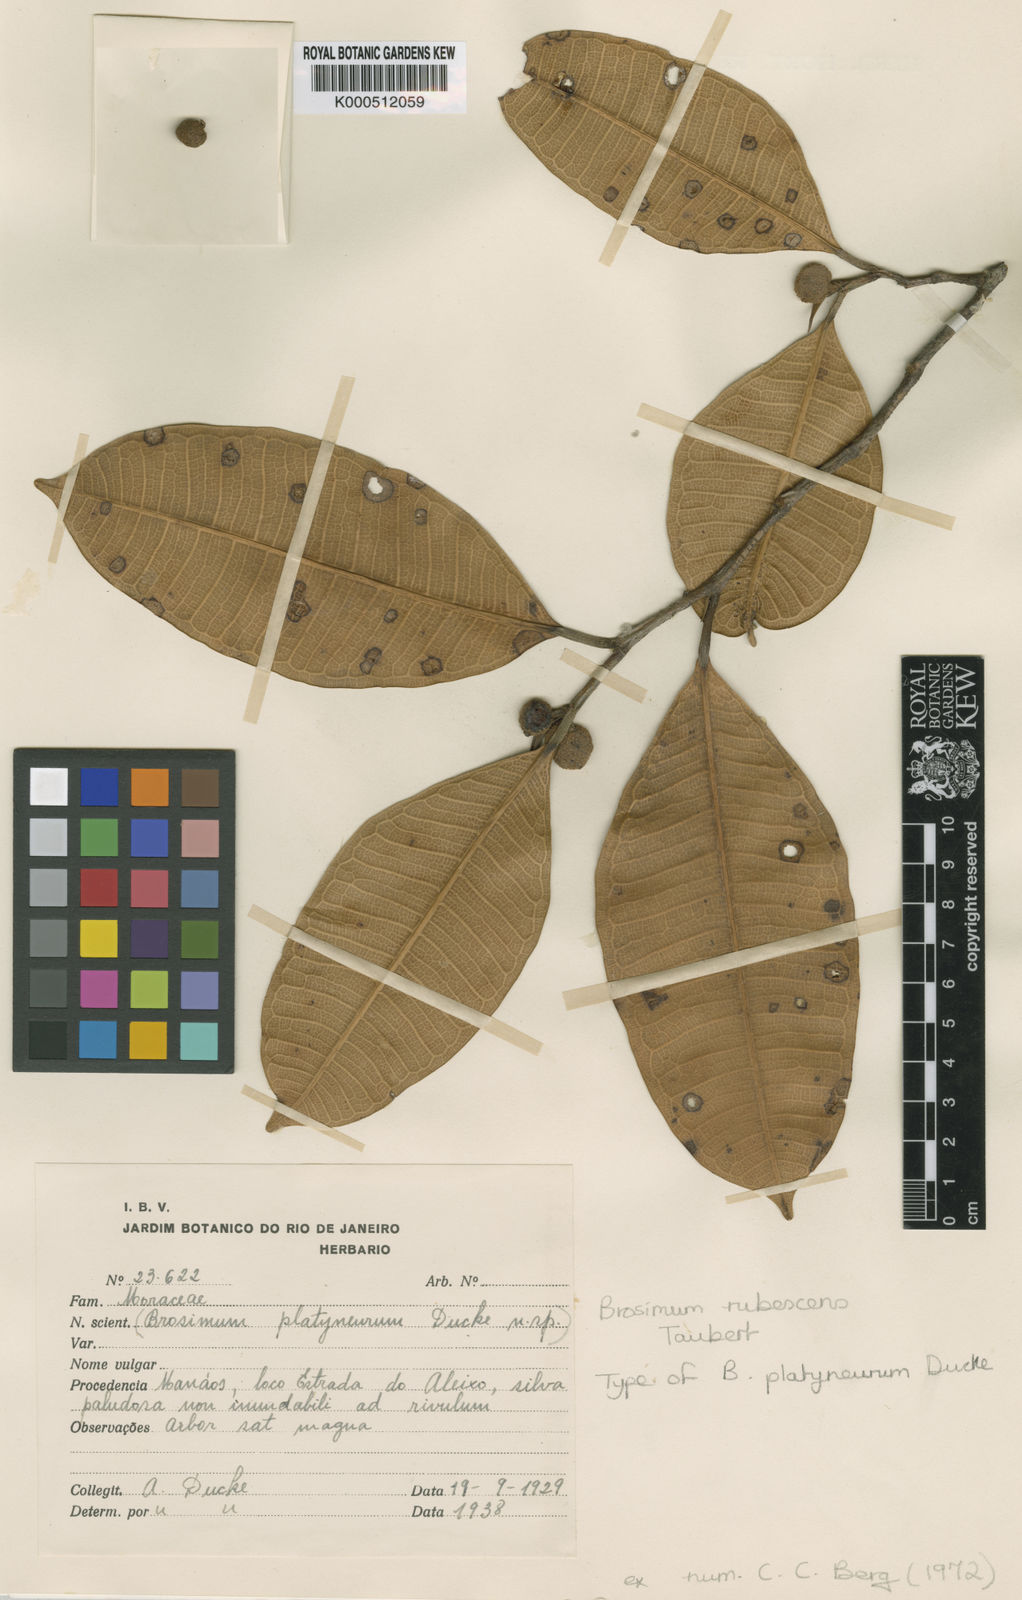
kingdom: Plantae
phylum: Tracheophyta
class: Magnoliopsida
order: Rosales
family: Moraceae
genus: Brosimum
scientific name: Brosimum rubescens
